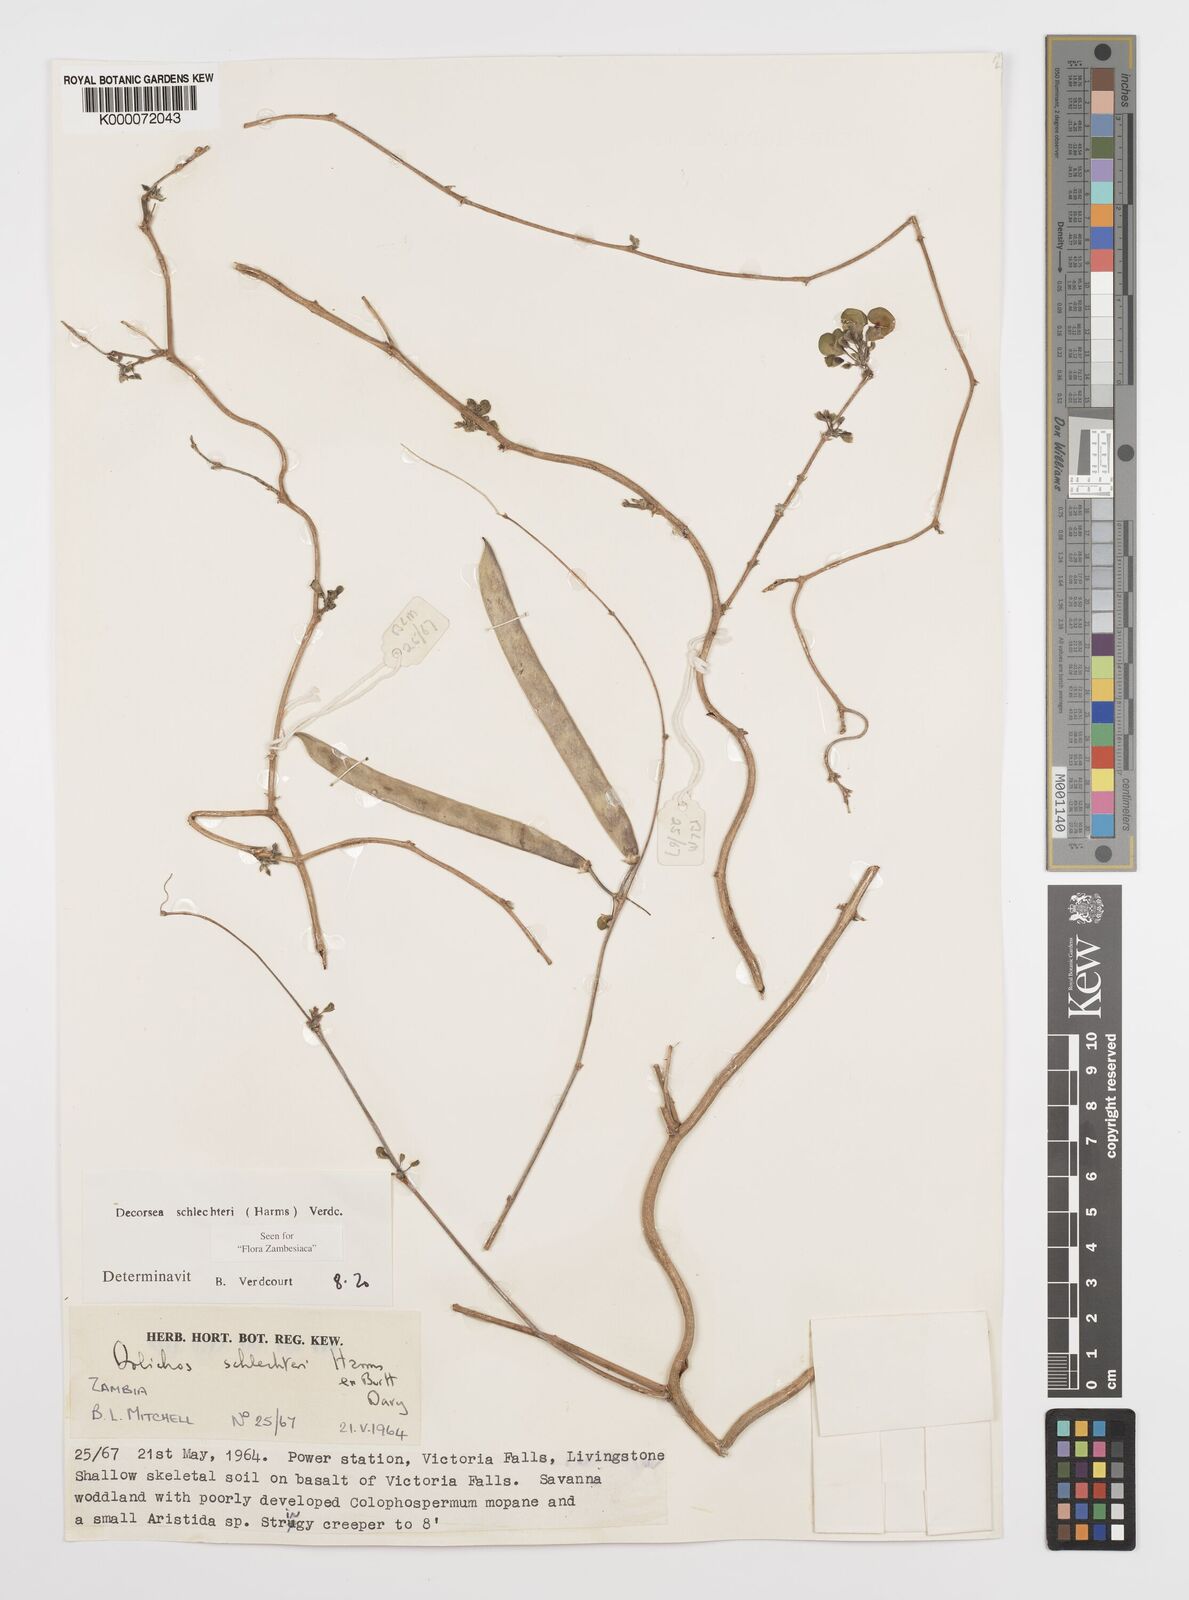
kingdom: Plantae
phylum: Tracheophyta
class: Magnoliopsida
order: Fabales
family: Fabaceae
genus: Decorsea
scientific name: Decorsea schlechteri
